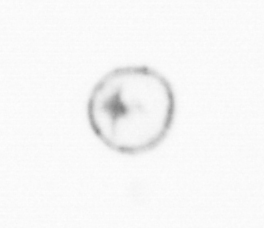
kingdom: Chromista
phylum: Myzozoa
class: Dinophyceae
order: Noctilucales
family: Noctilucaceae
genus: Noctiluca
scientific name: Noctiluca scintillans
